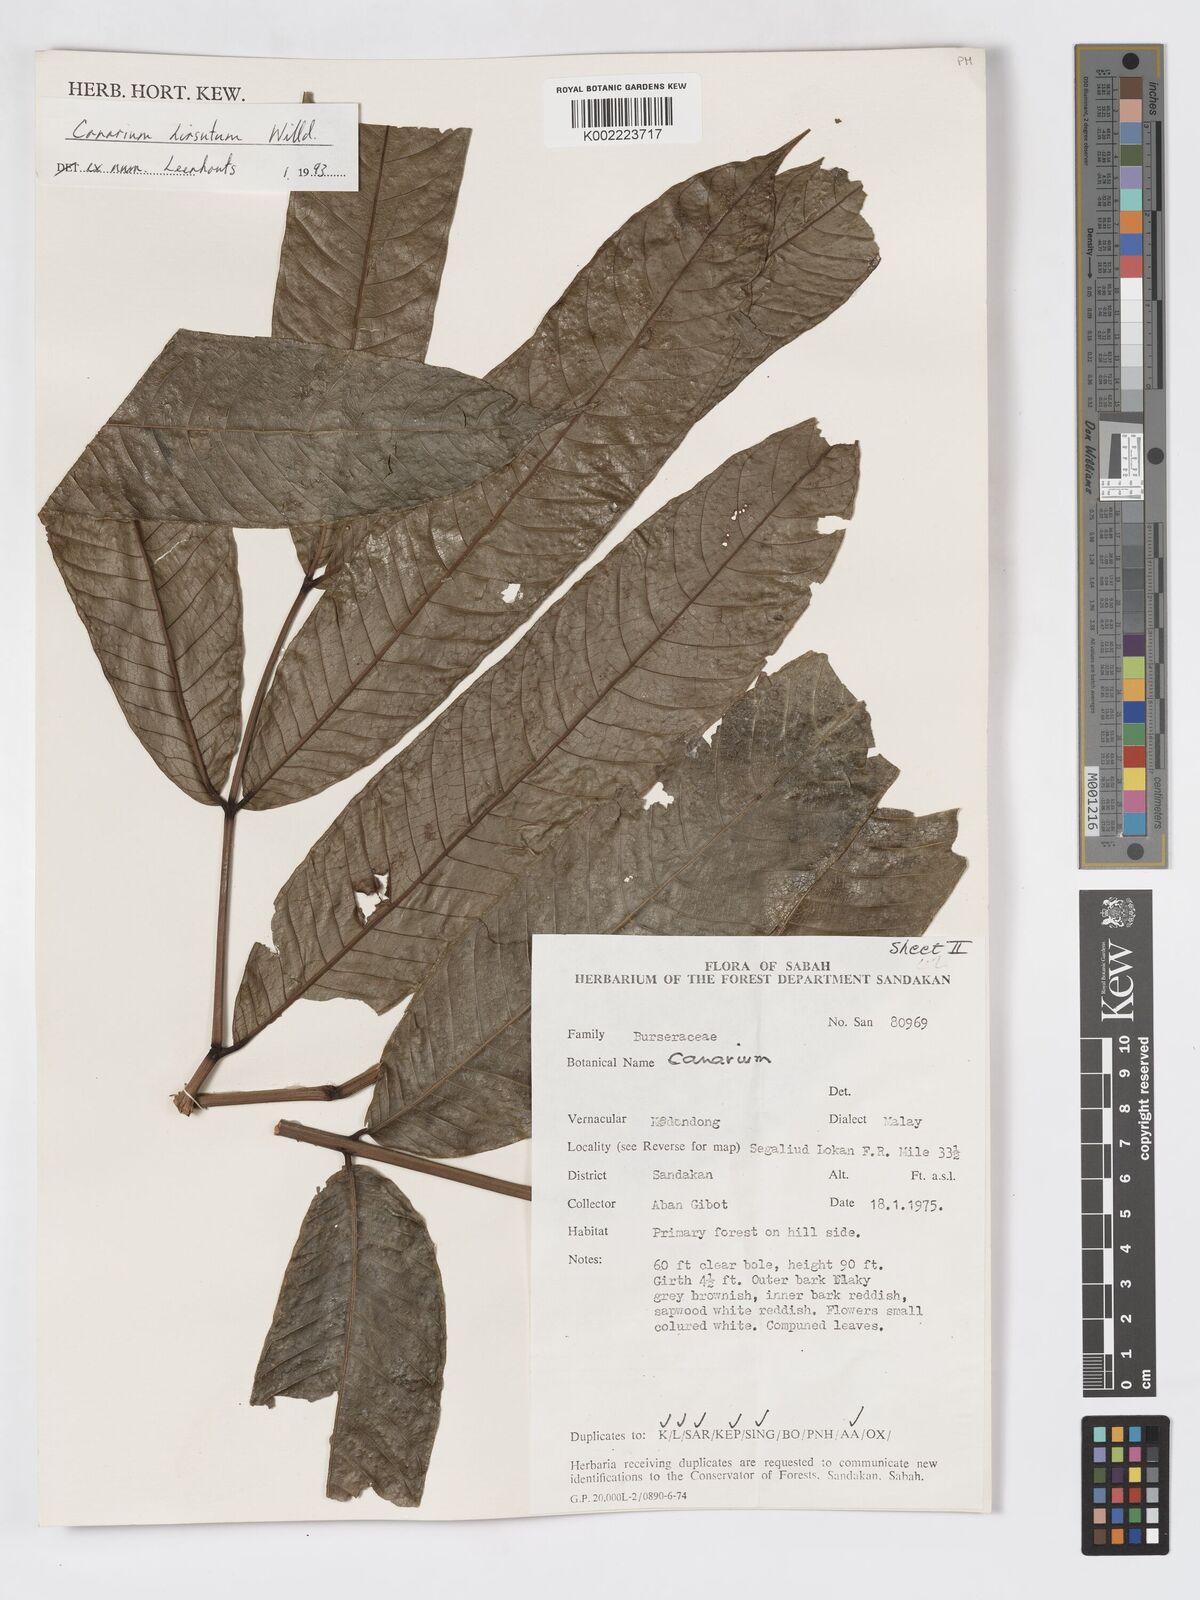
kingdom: Plantae
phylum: Tracheophyta
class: Magnoliopsida
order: Sapindales
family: Burseraceae
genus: Canarium
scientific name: Canarium hirsutum
